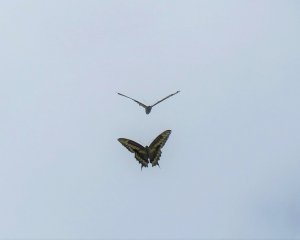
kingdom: Animalia
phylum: Arthropoda
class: Insecta
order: Lepidoptera
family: Papilionidae
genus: Papilio
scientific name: Papilio cresphontes
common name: Eastern Giant Swallowtail
